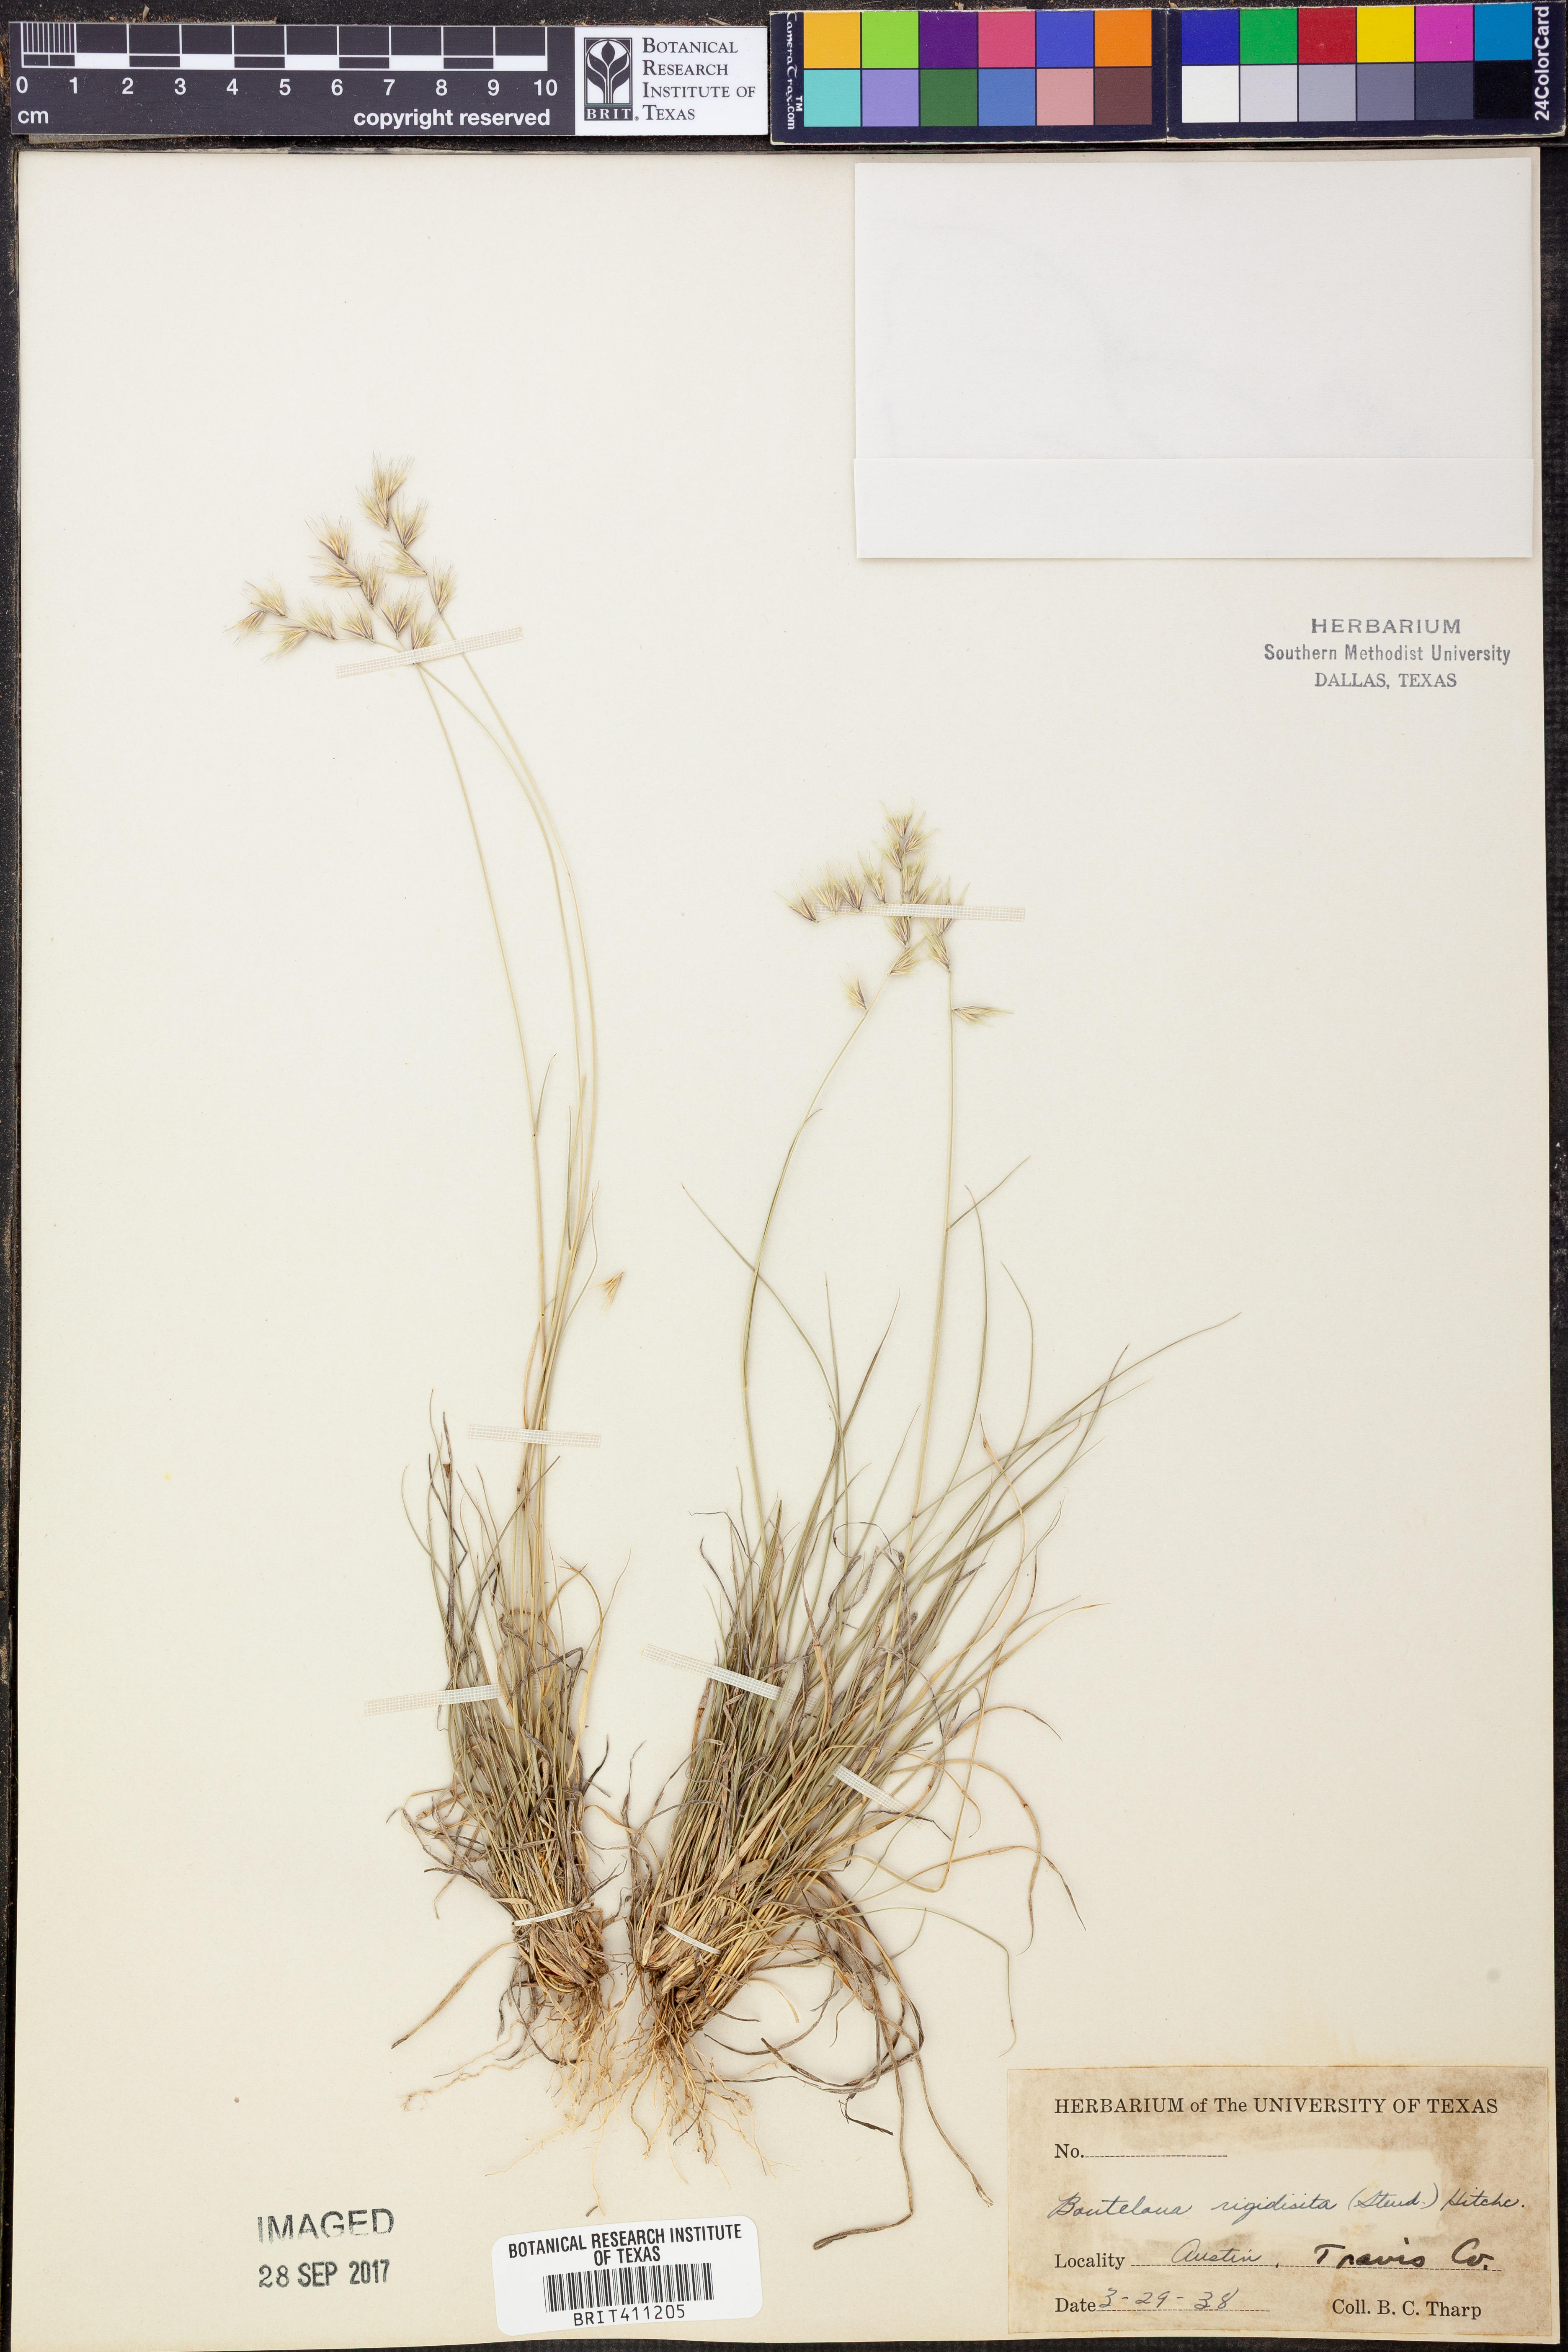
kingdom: Plantae
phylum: Tracheophyta
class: Liliopsida
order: Poales
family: Poaceae
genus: Bouteloua
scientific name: Bouteloua rigidiseta
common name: Texas grama
